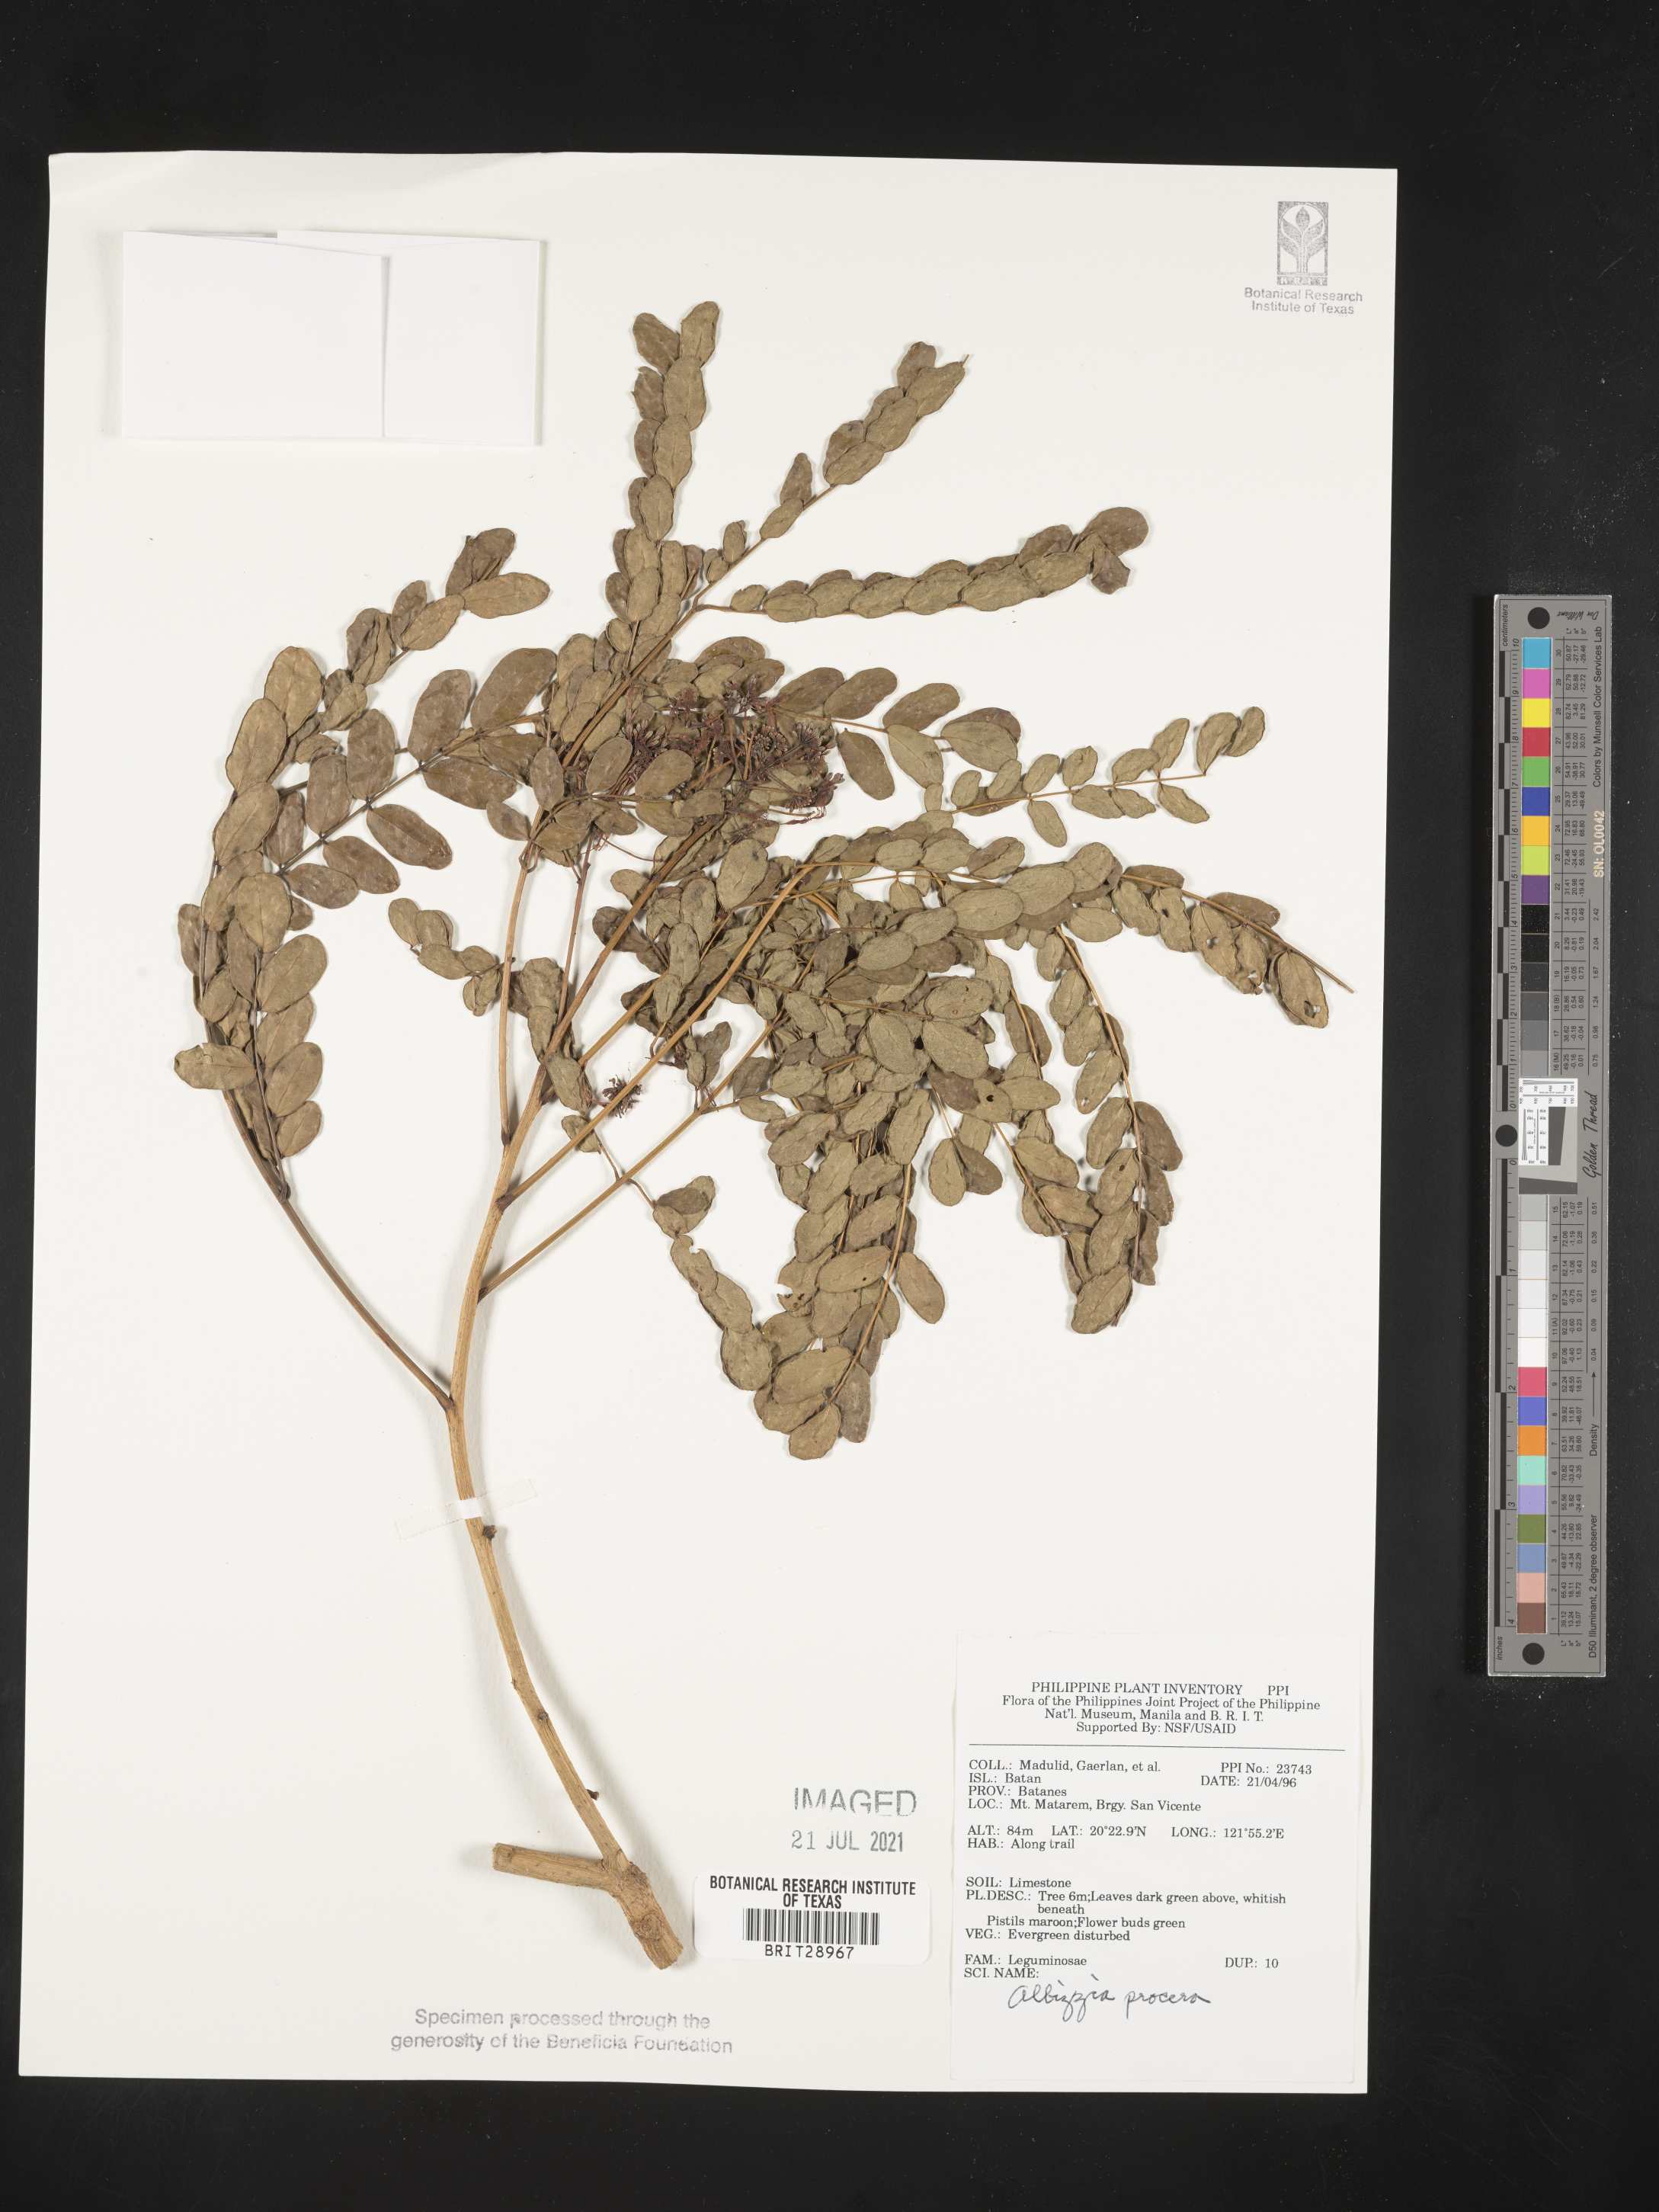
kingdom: Plantae
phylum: Tracheophyta
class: Magnoliopsida
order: Fabales
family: Fabaceae
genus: Albizia
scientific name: Albizia procera
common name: Tall albizia
